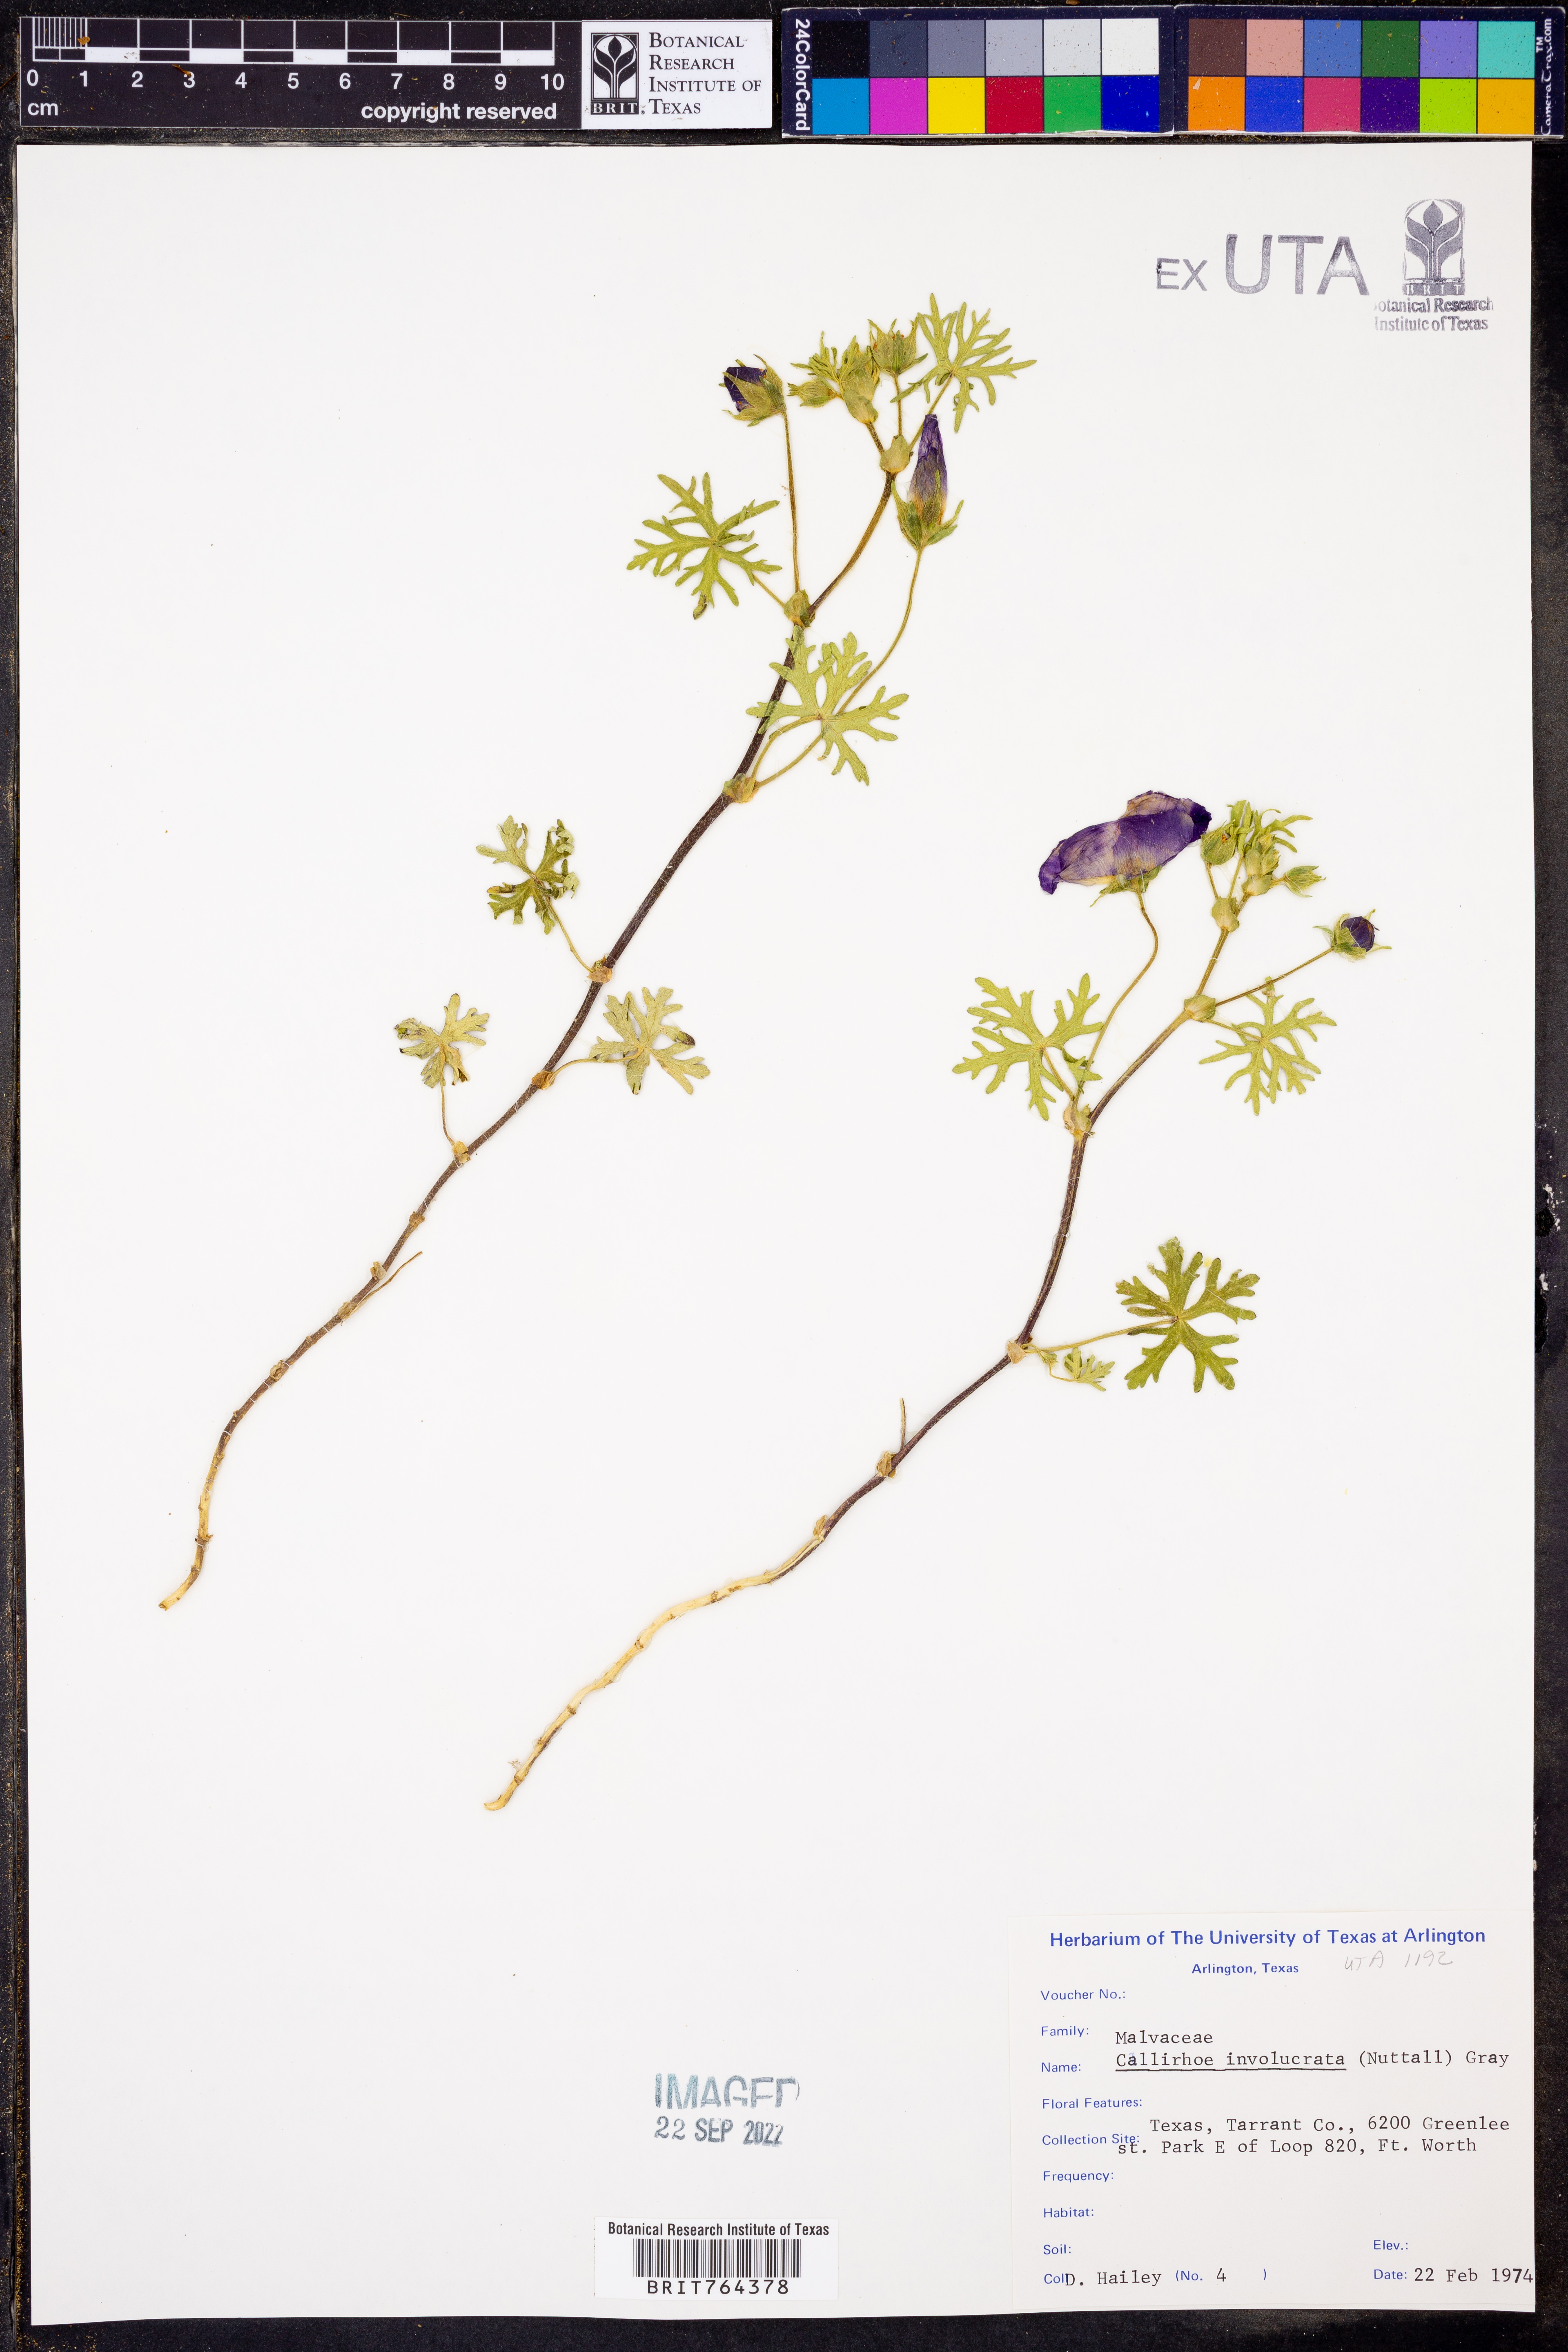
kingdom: Plantae
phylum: Tracheophyta
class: Magnoliopsida
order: Malvales
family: Malvaceae
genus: Callirhoe
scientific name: Callirhoe involucrata
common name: Purple poppy-mallow
